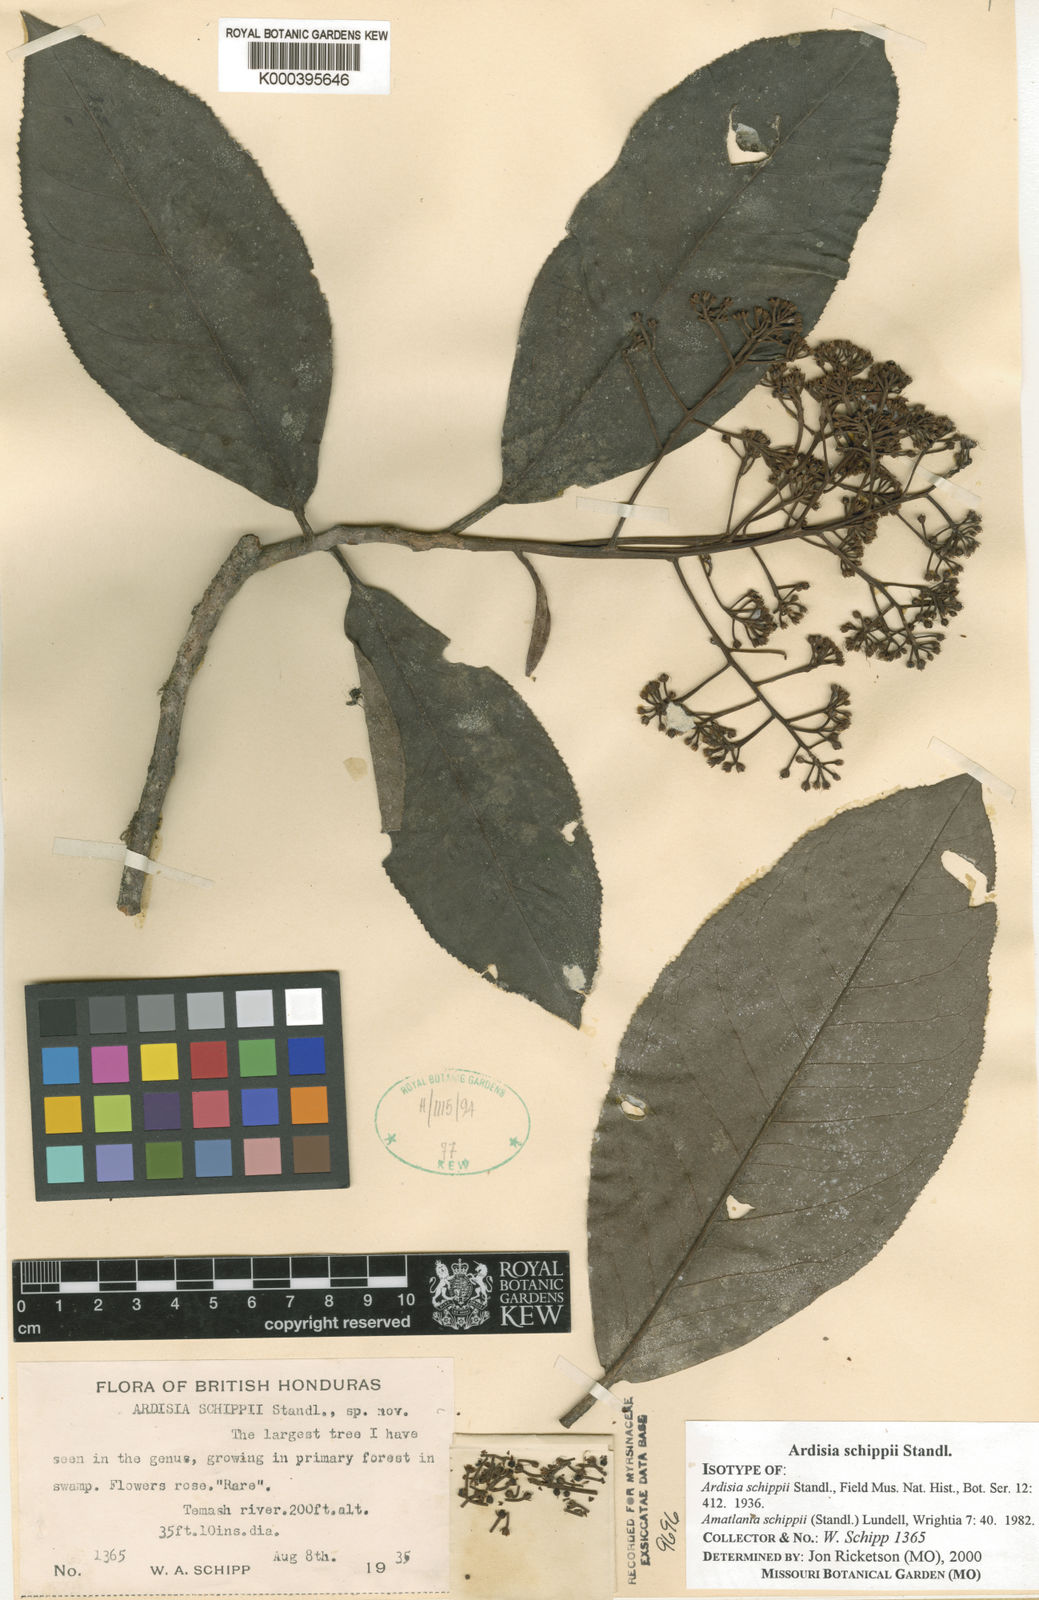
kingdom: Plantae
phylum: Tracheophyta
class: Magnoliopsida
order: Ericales
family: Primulaceae
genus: Ardisia
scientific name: Ardisia schippii
